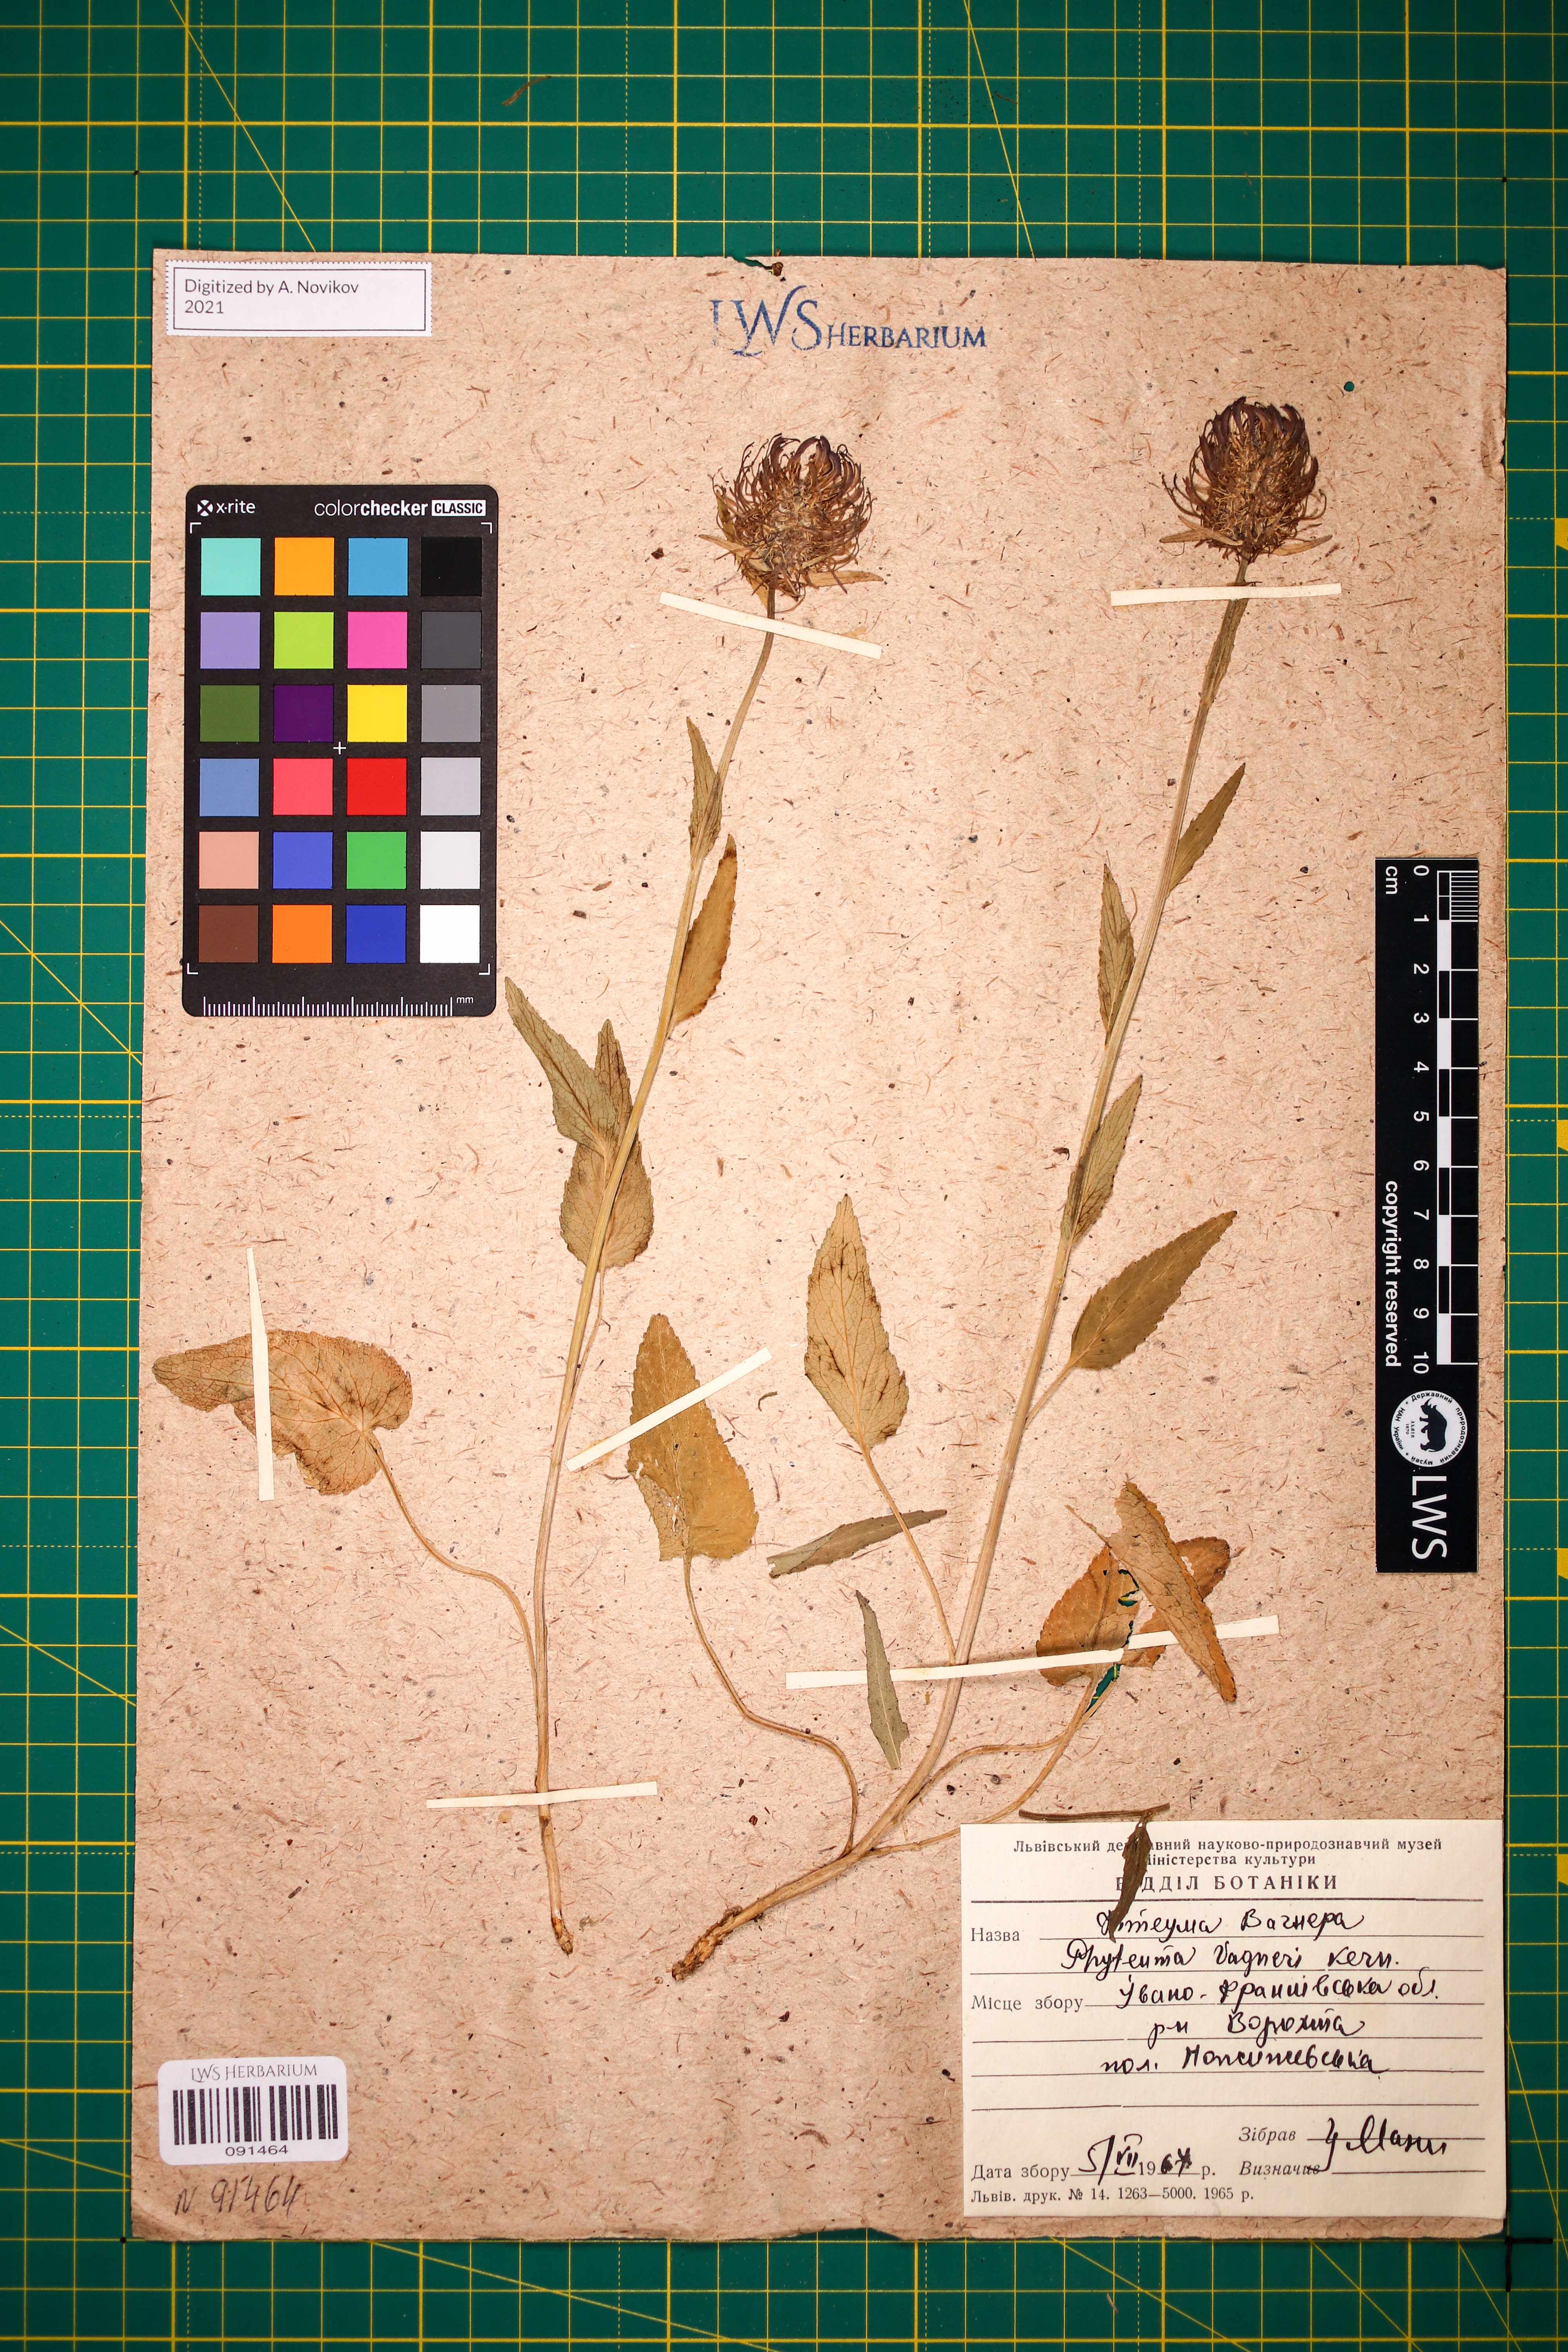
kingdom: Plantae
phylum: Tracheophyta
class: Magnoliopsida
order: Asterales
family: Campanulaceae
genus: Phyteuma
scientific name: Phyteuma vagneri
